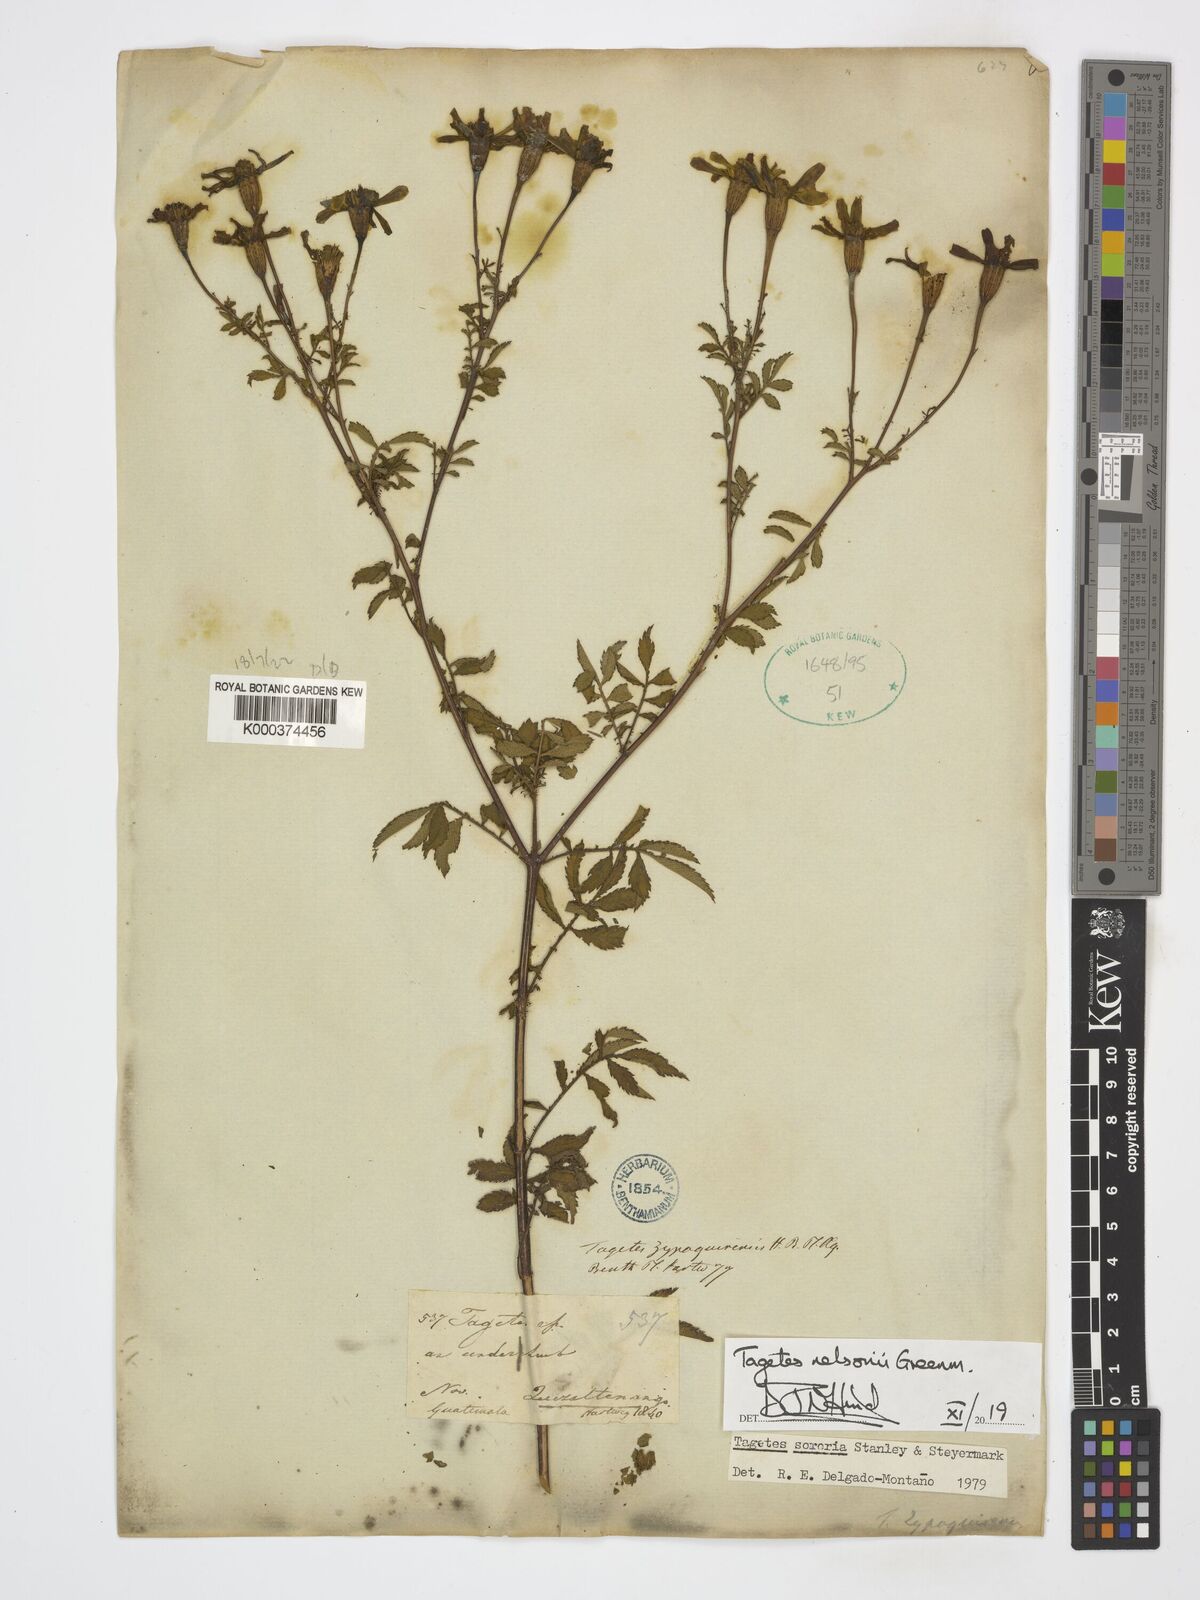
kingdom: Plantae
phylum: Tracheophyta
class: Magnoliopsida
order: Asterales
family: Asteraceae
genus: Tagetes
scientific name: Tagetes nelsonii
